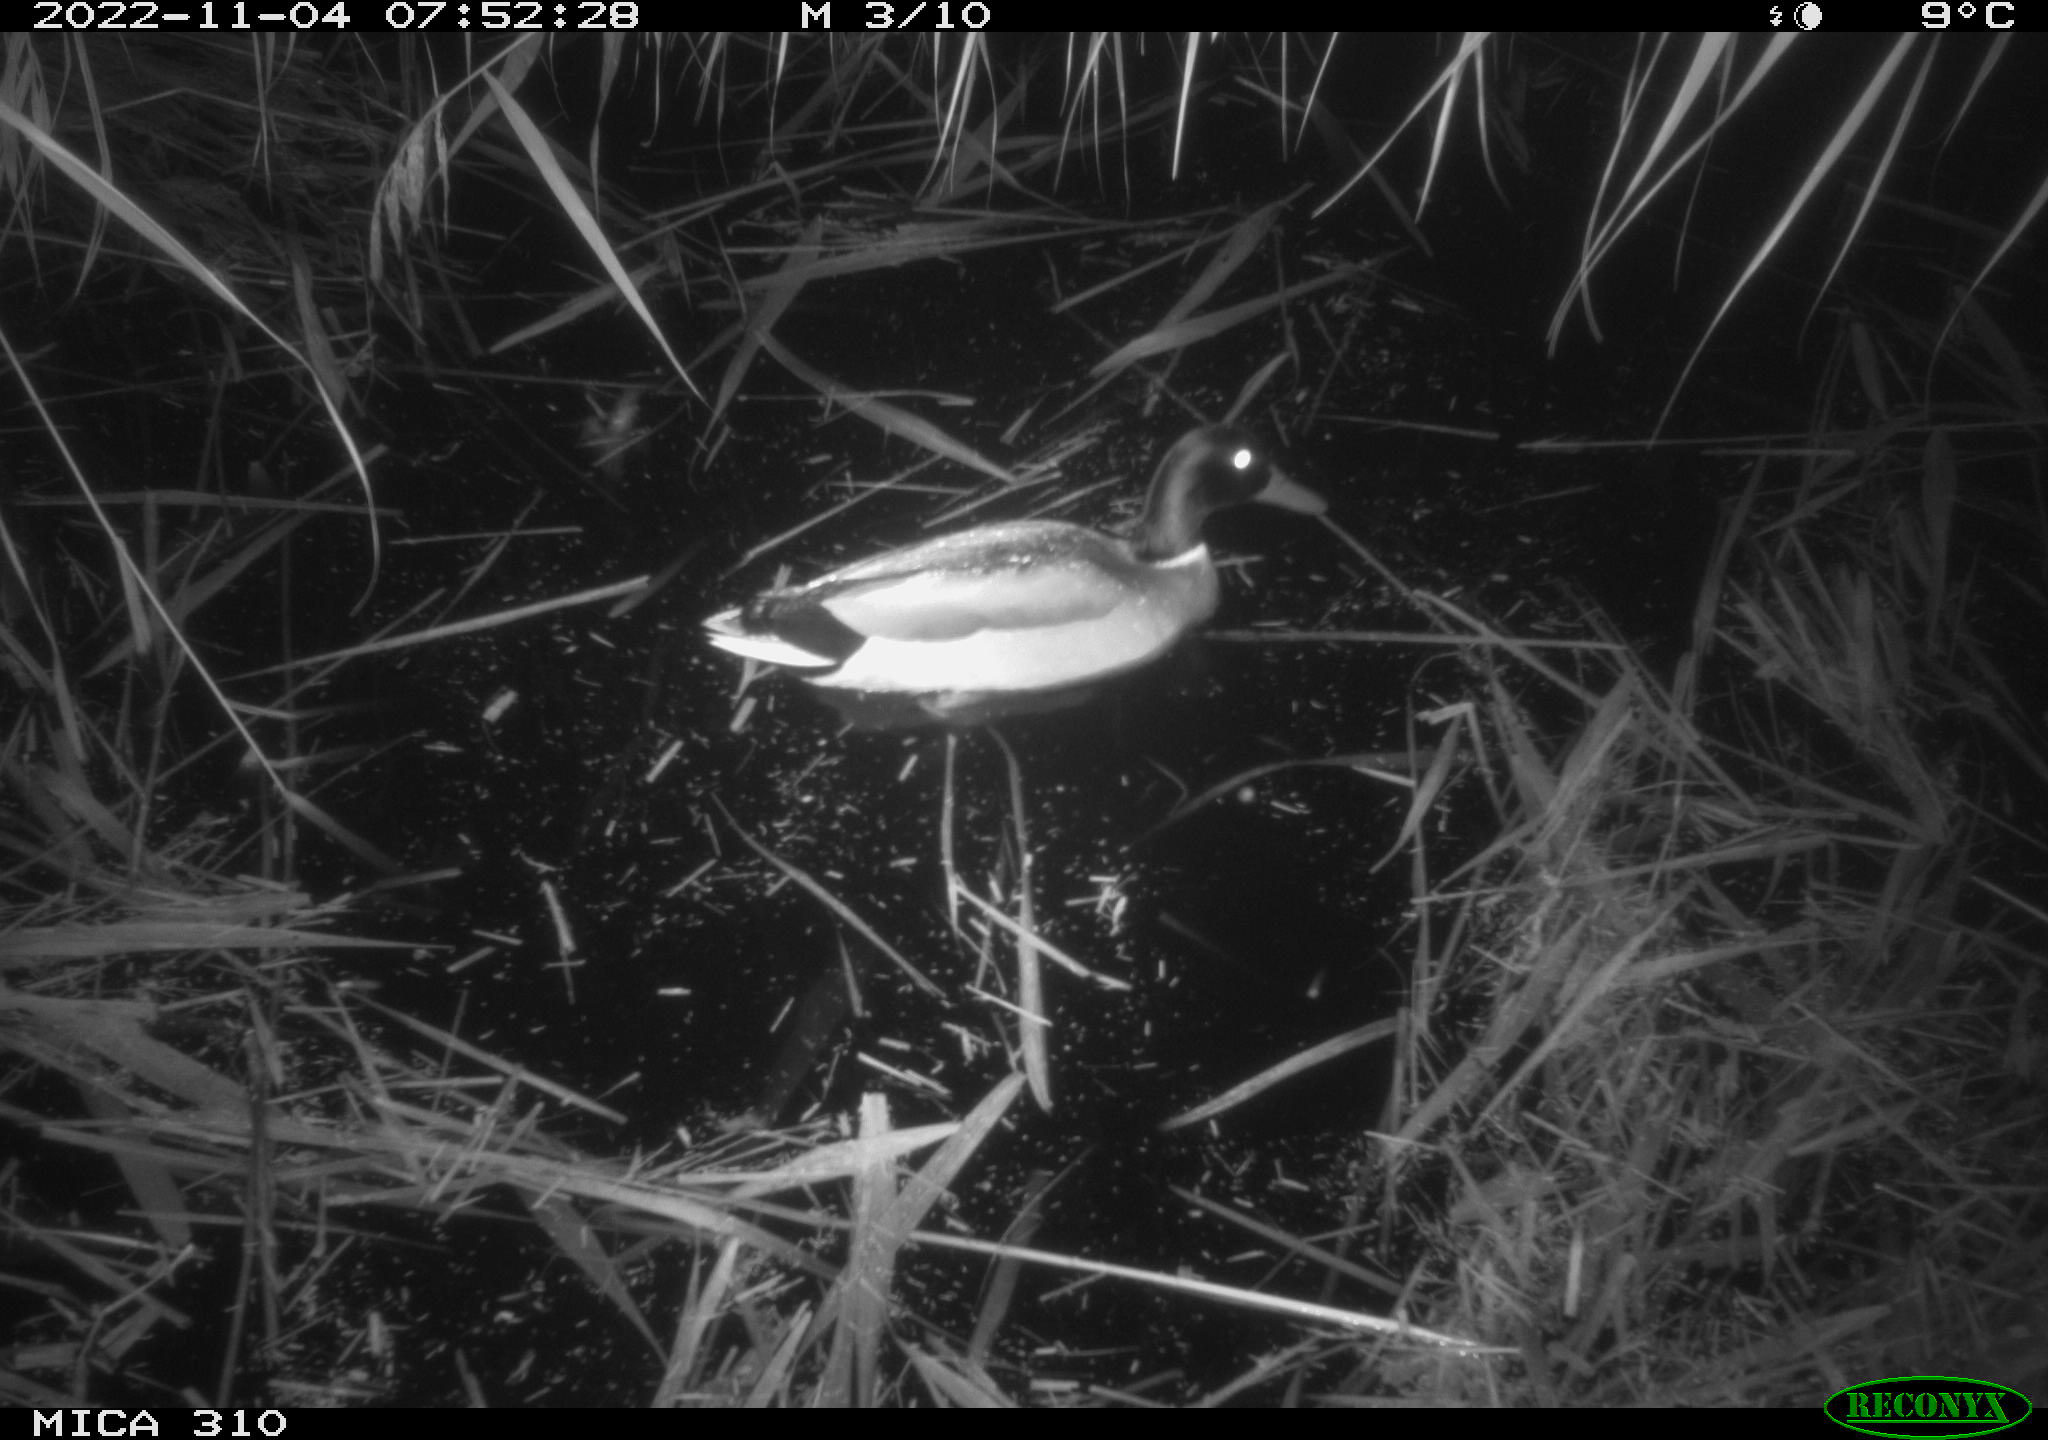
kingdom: Animalia
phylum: Chordata
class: Aves
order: Anseriformes
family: Anatidae
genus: Anas
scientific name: Anas
